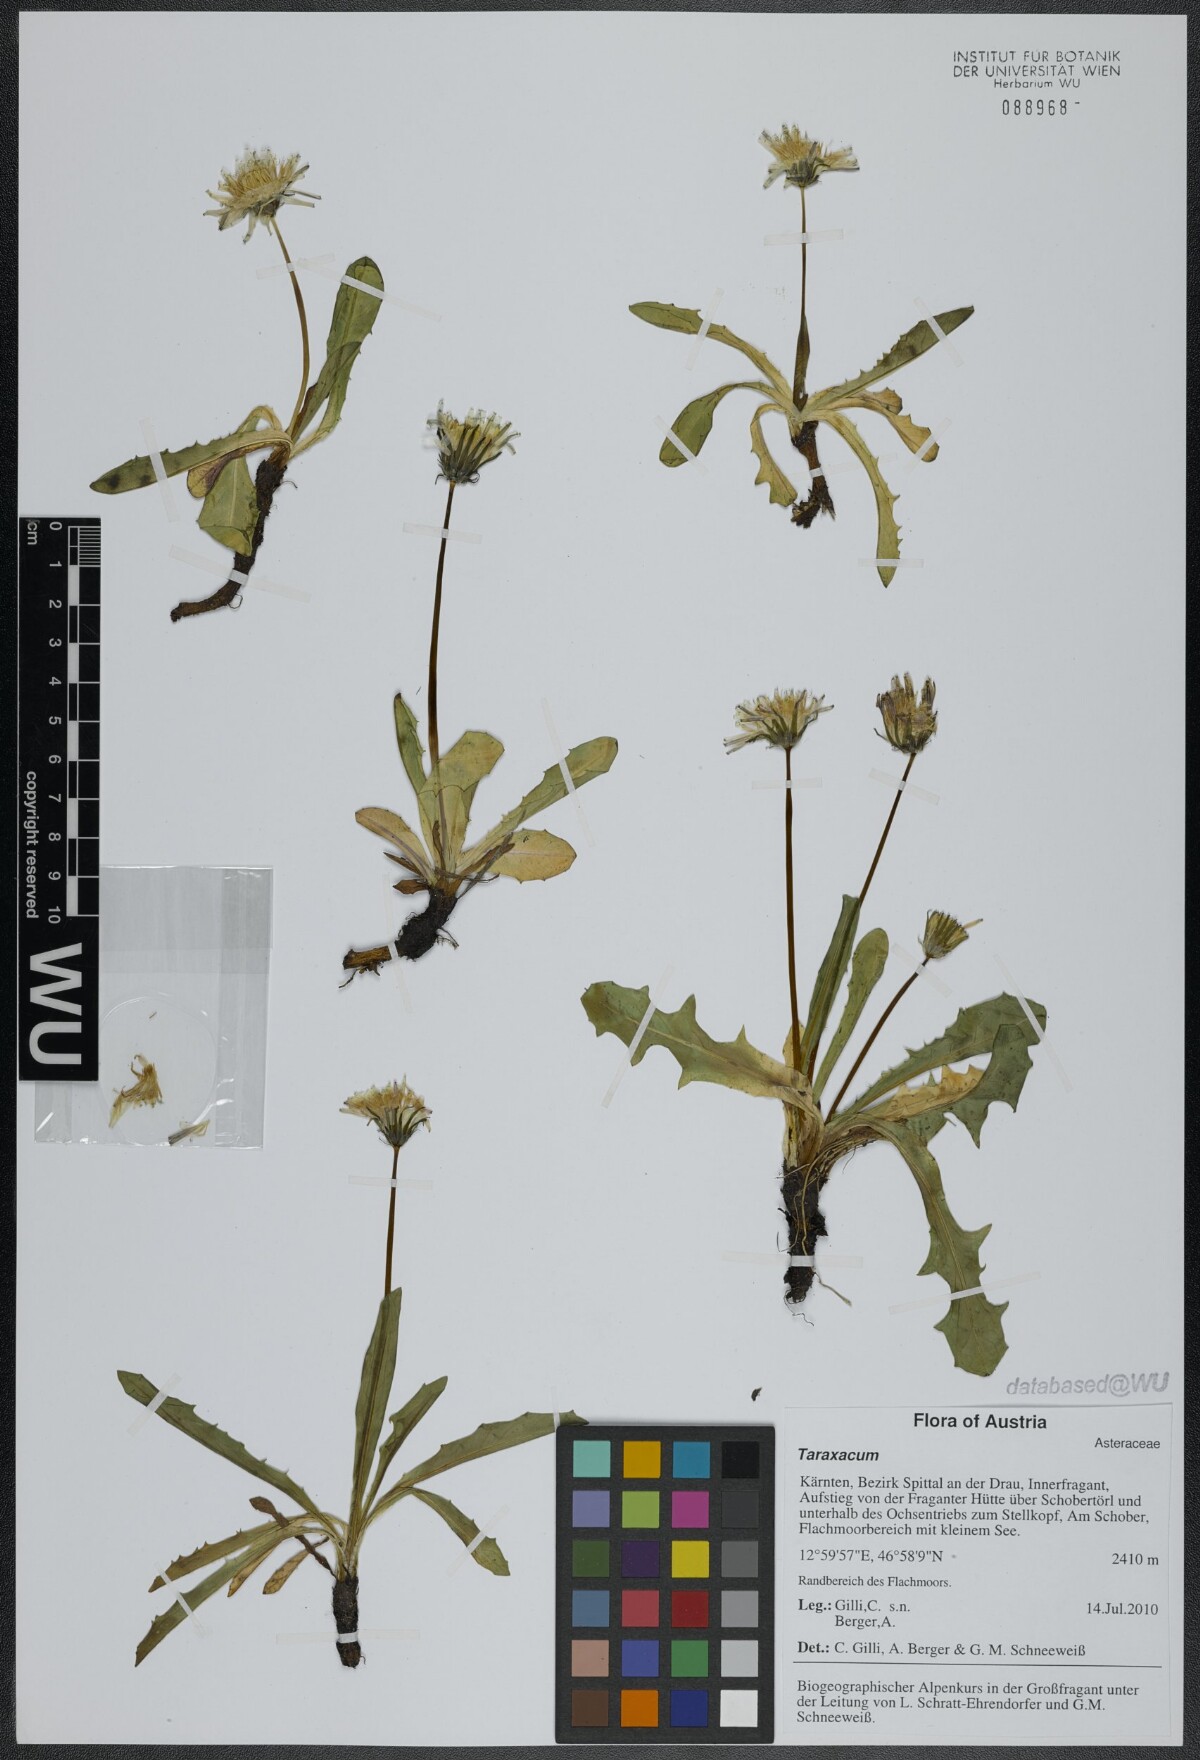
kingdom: Plantae
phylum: Tracheophyta
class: Magnoliopsida
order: Asterales
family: Asteraceae
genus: Taraxacum
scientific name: Taraxacum
